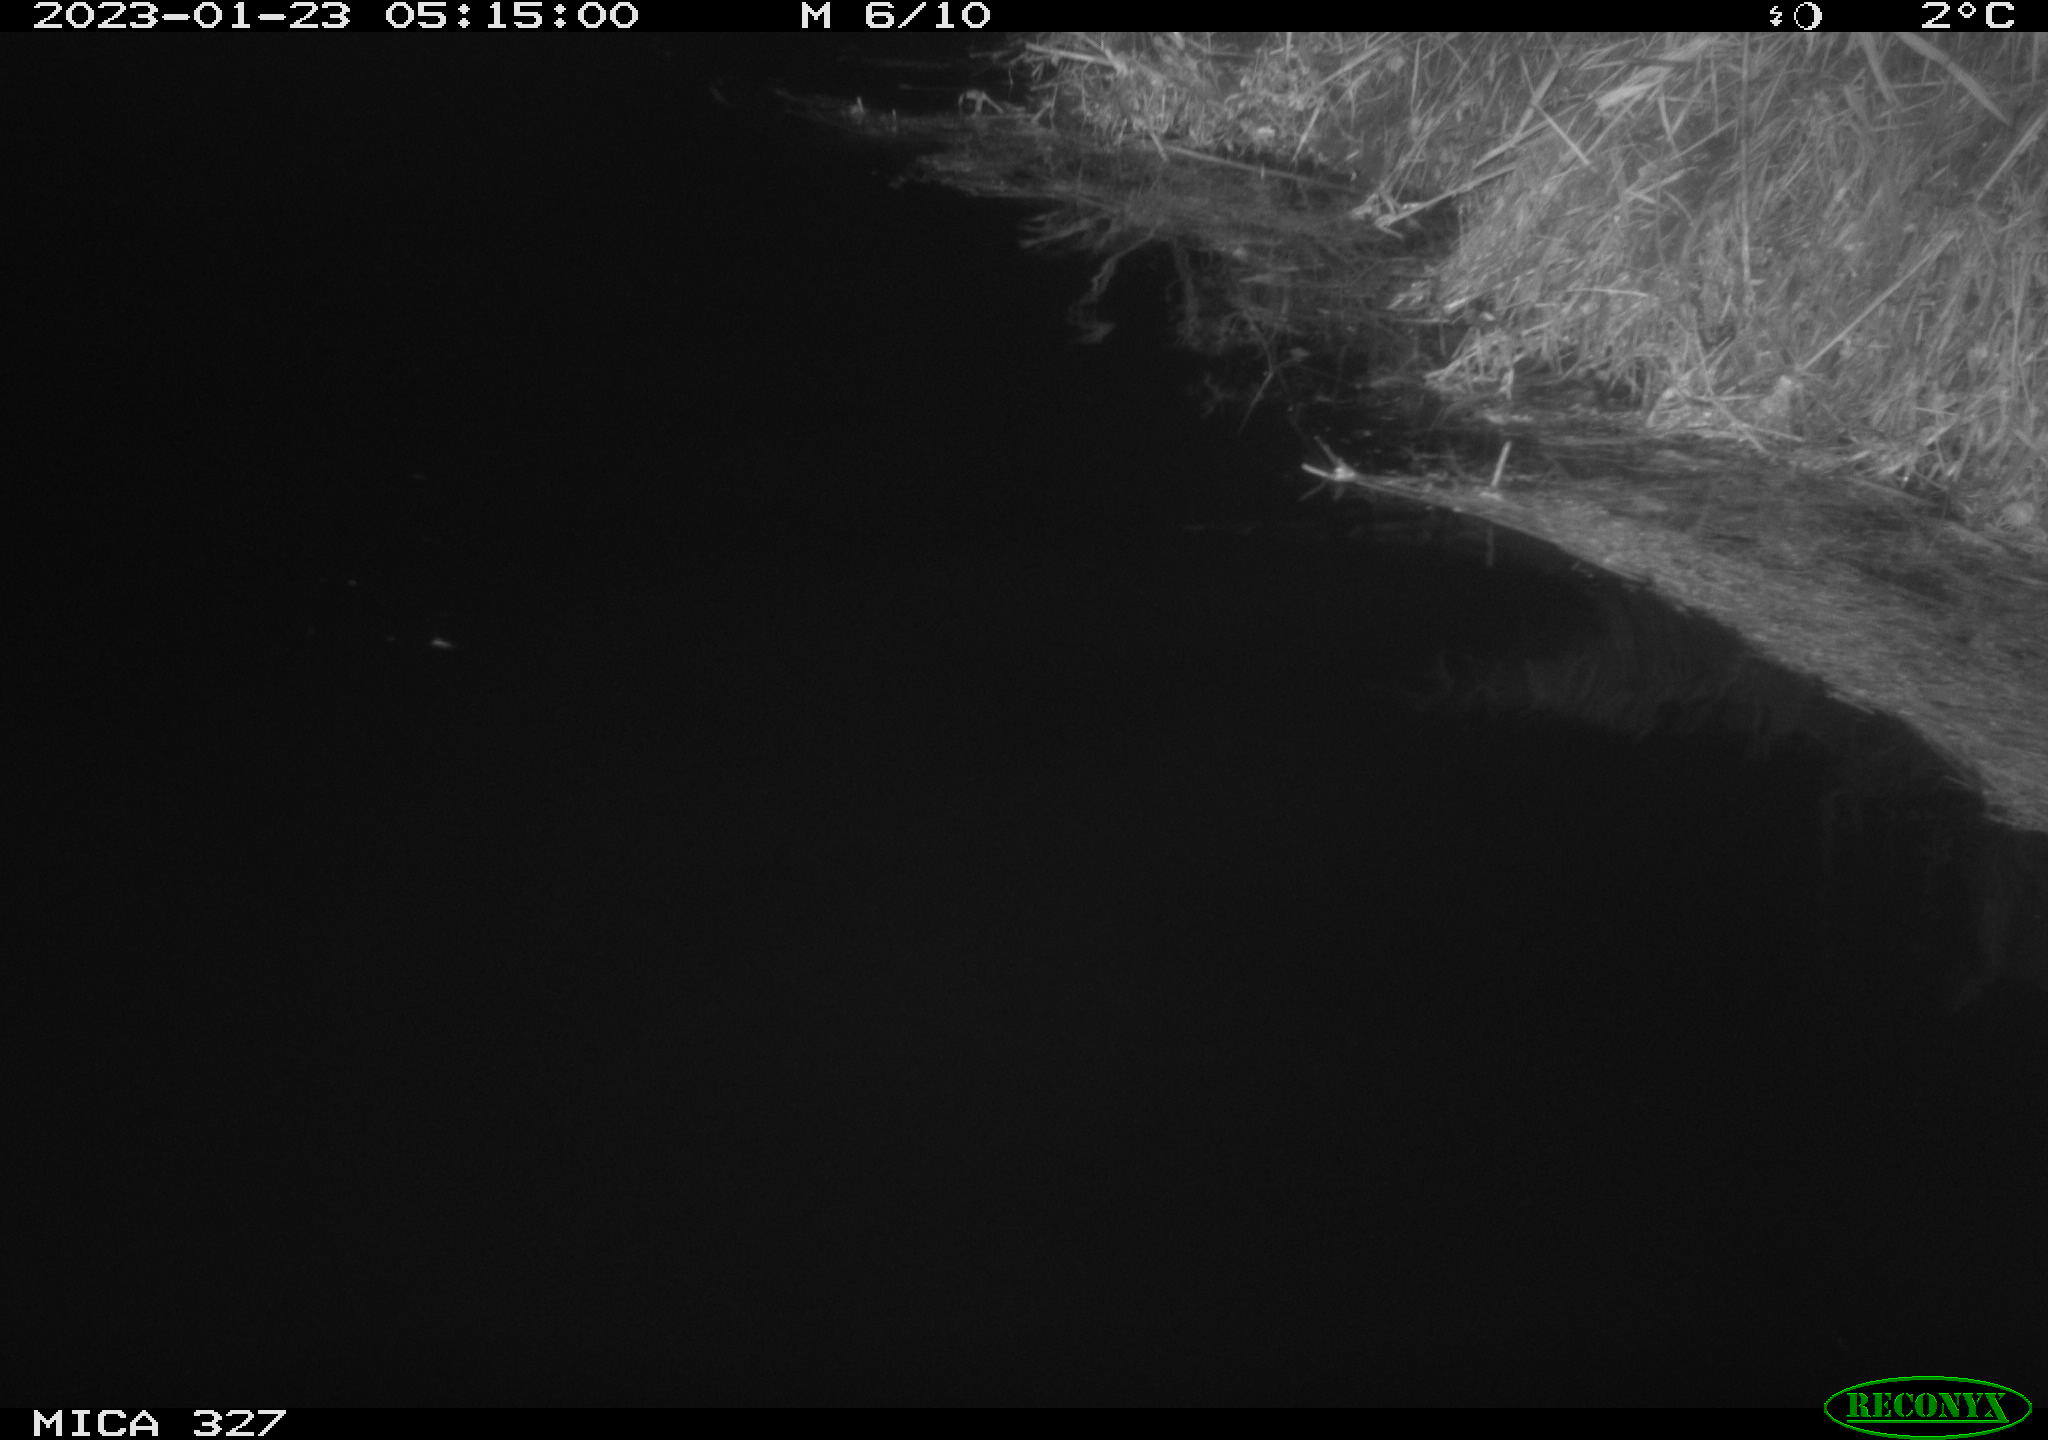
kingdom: Animalia
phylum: Chordata
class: Mammalia
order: Rodentia
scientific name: Rodentia
